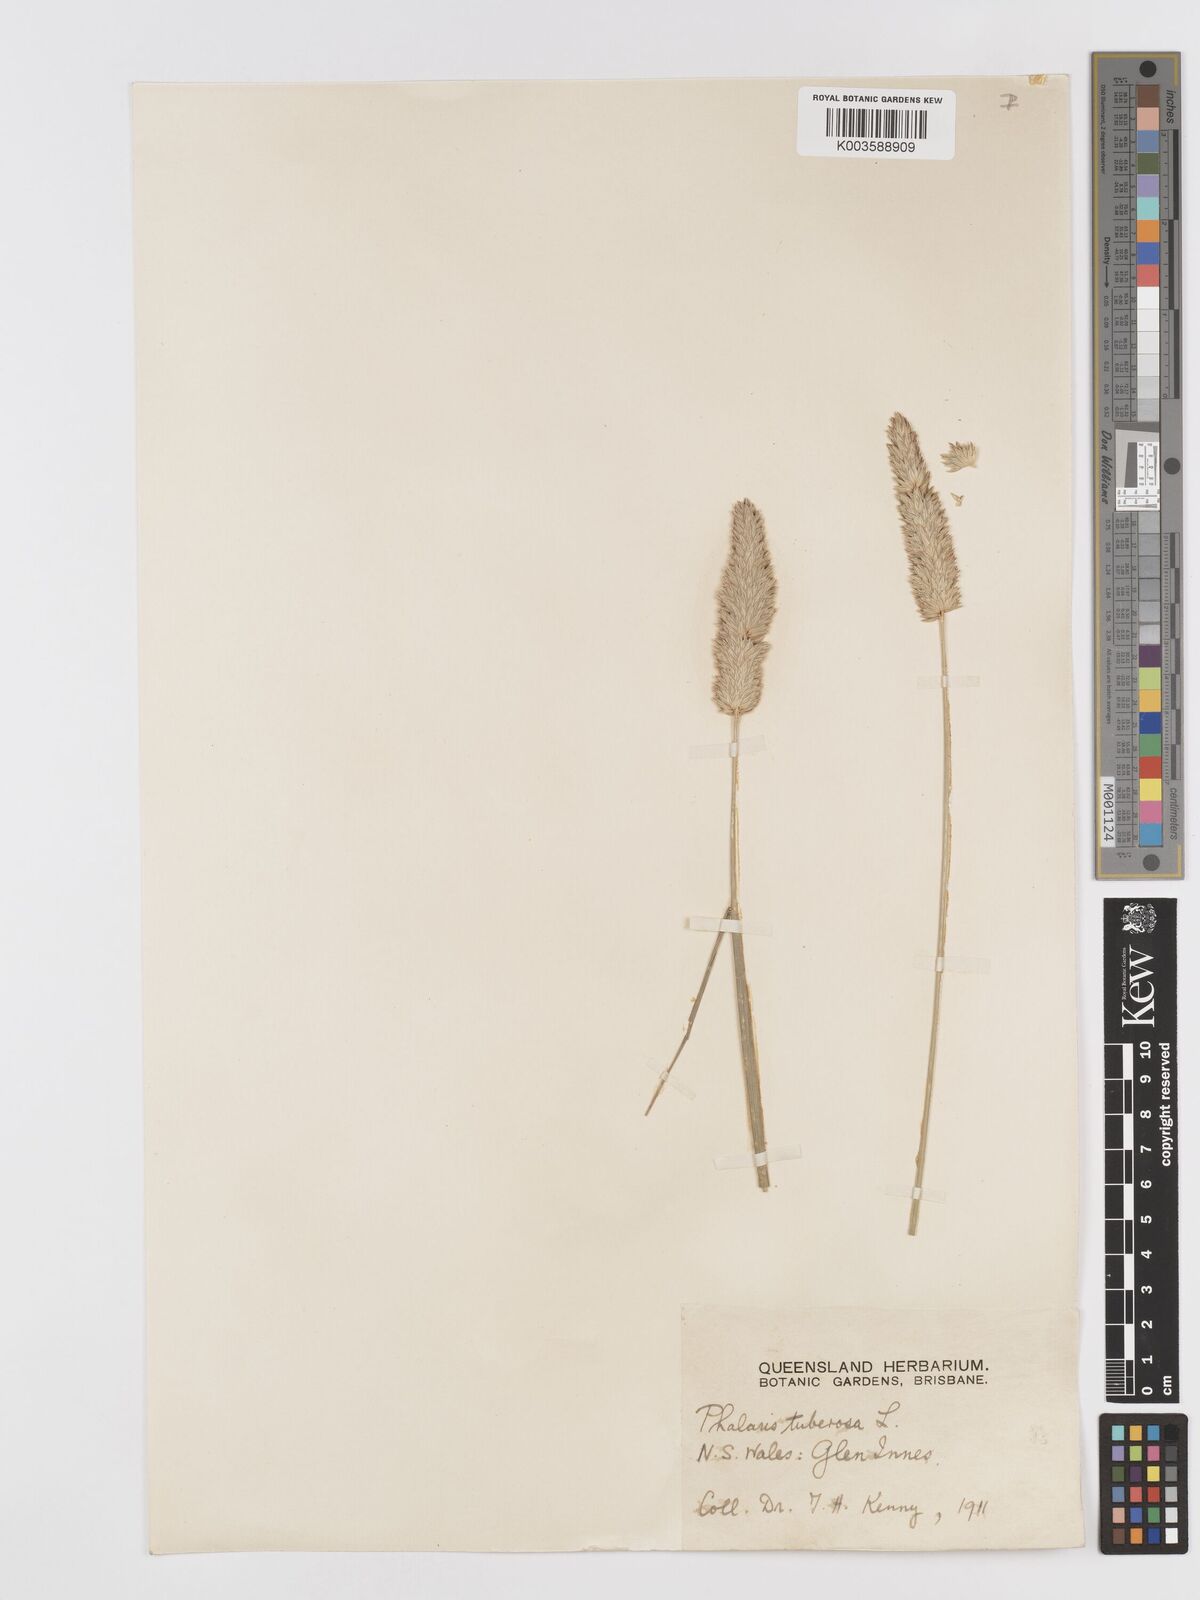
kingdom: Plantae
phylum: Tracheophyta
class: Liliopsida
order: Poales
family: Poaceae
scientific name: Poaceae
